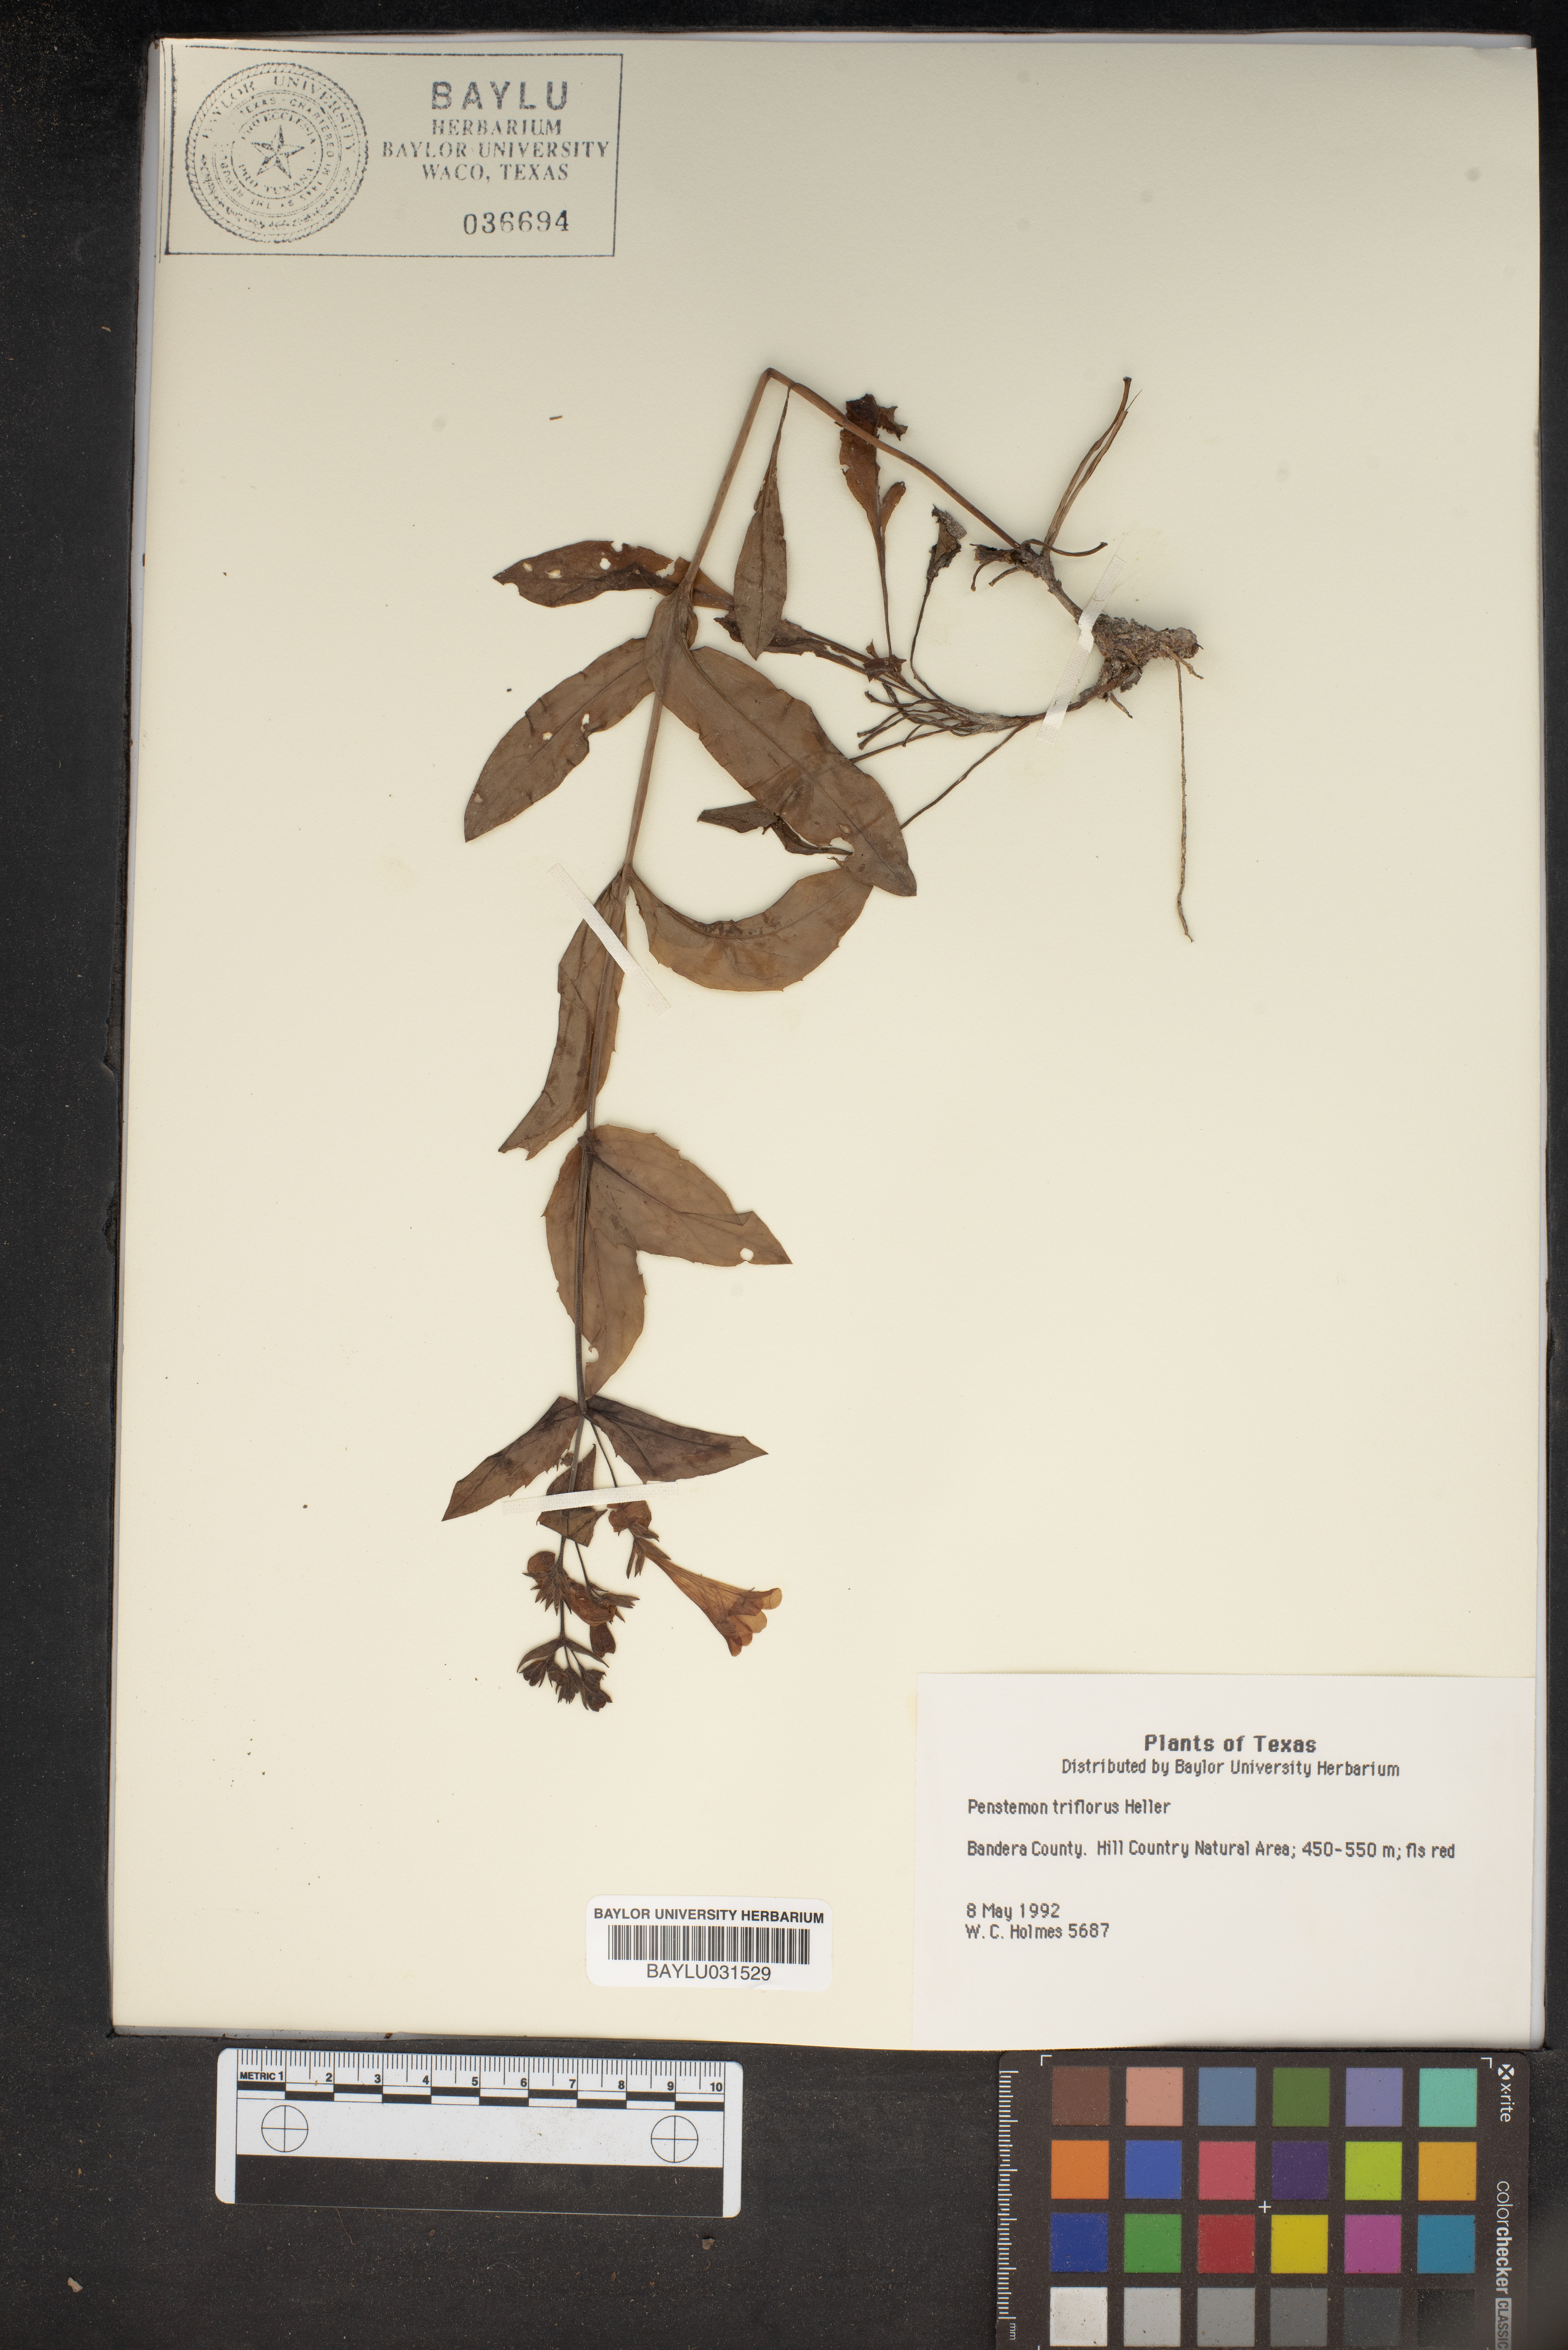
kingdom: Plantae
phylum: Tracheophyta
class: Magnoliopsida
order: Lamiales
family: Plantaginaceae
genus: Penstemon
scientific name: Penstemon triflorus
